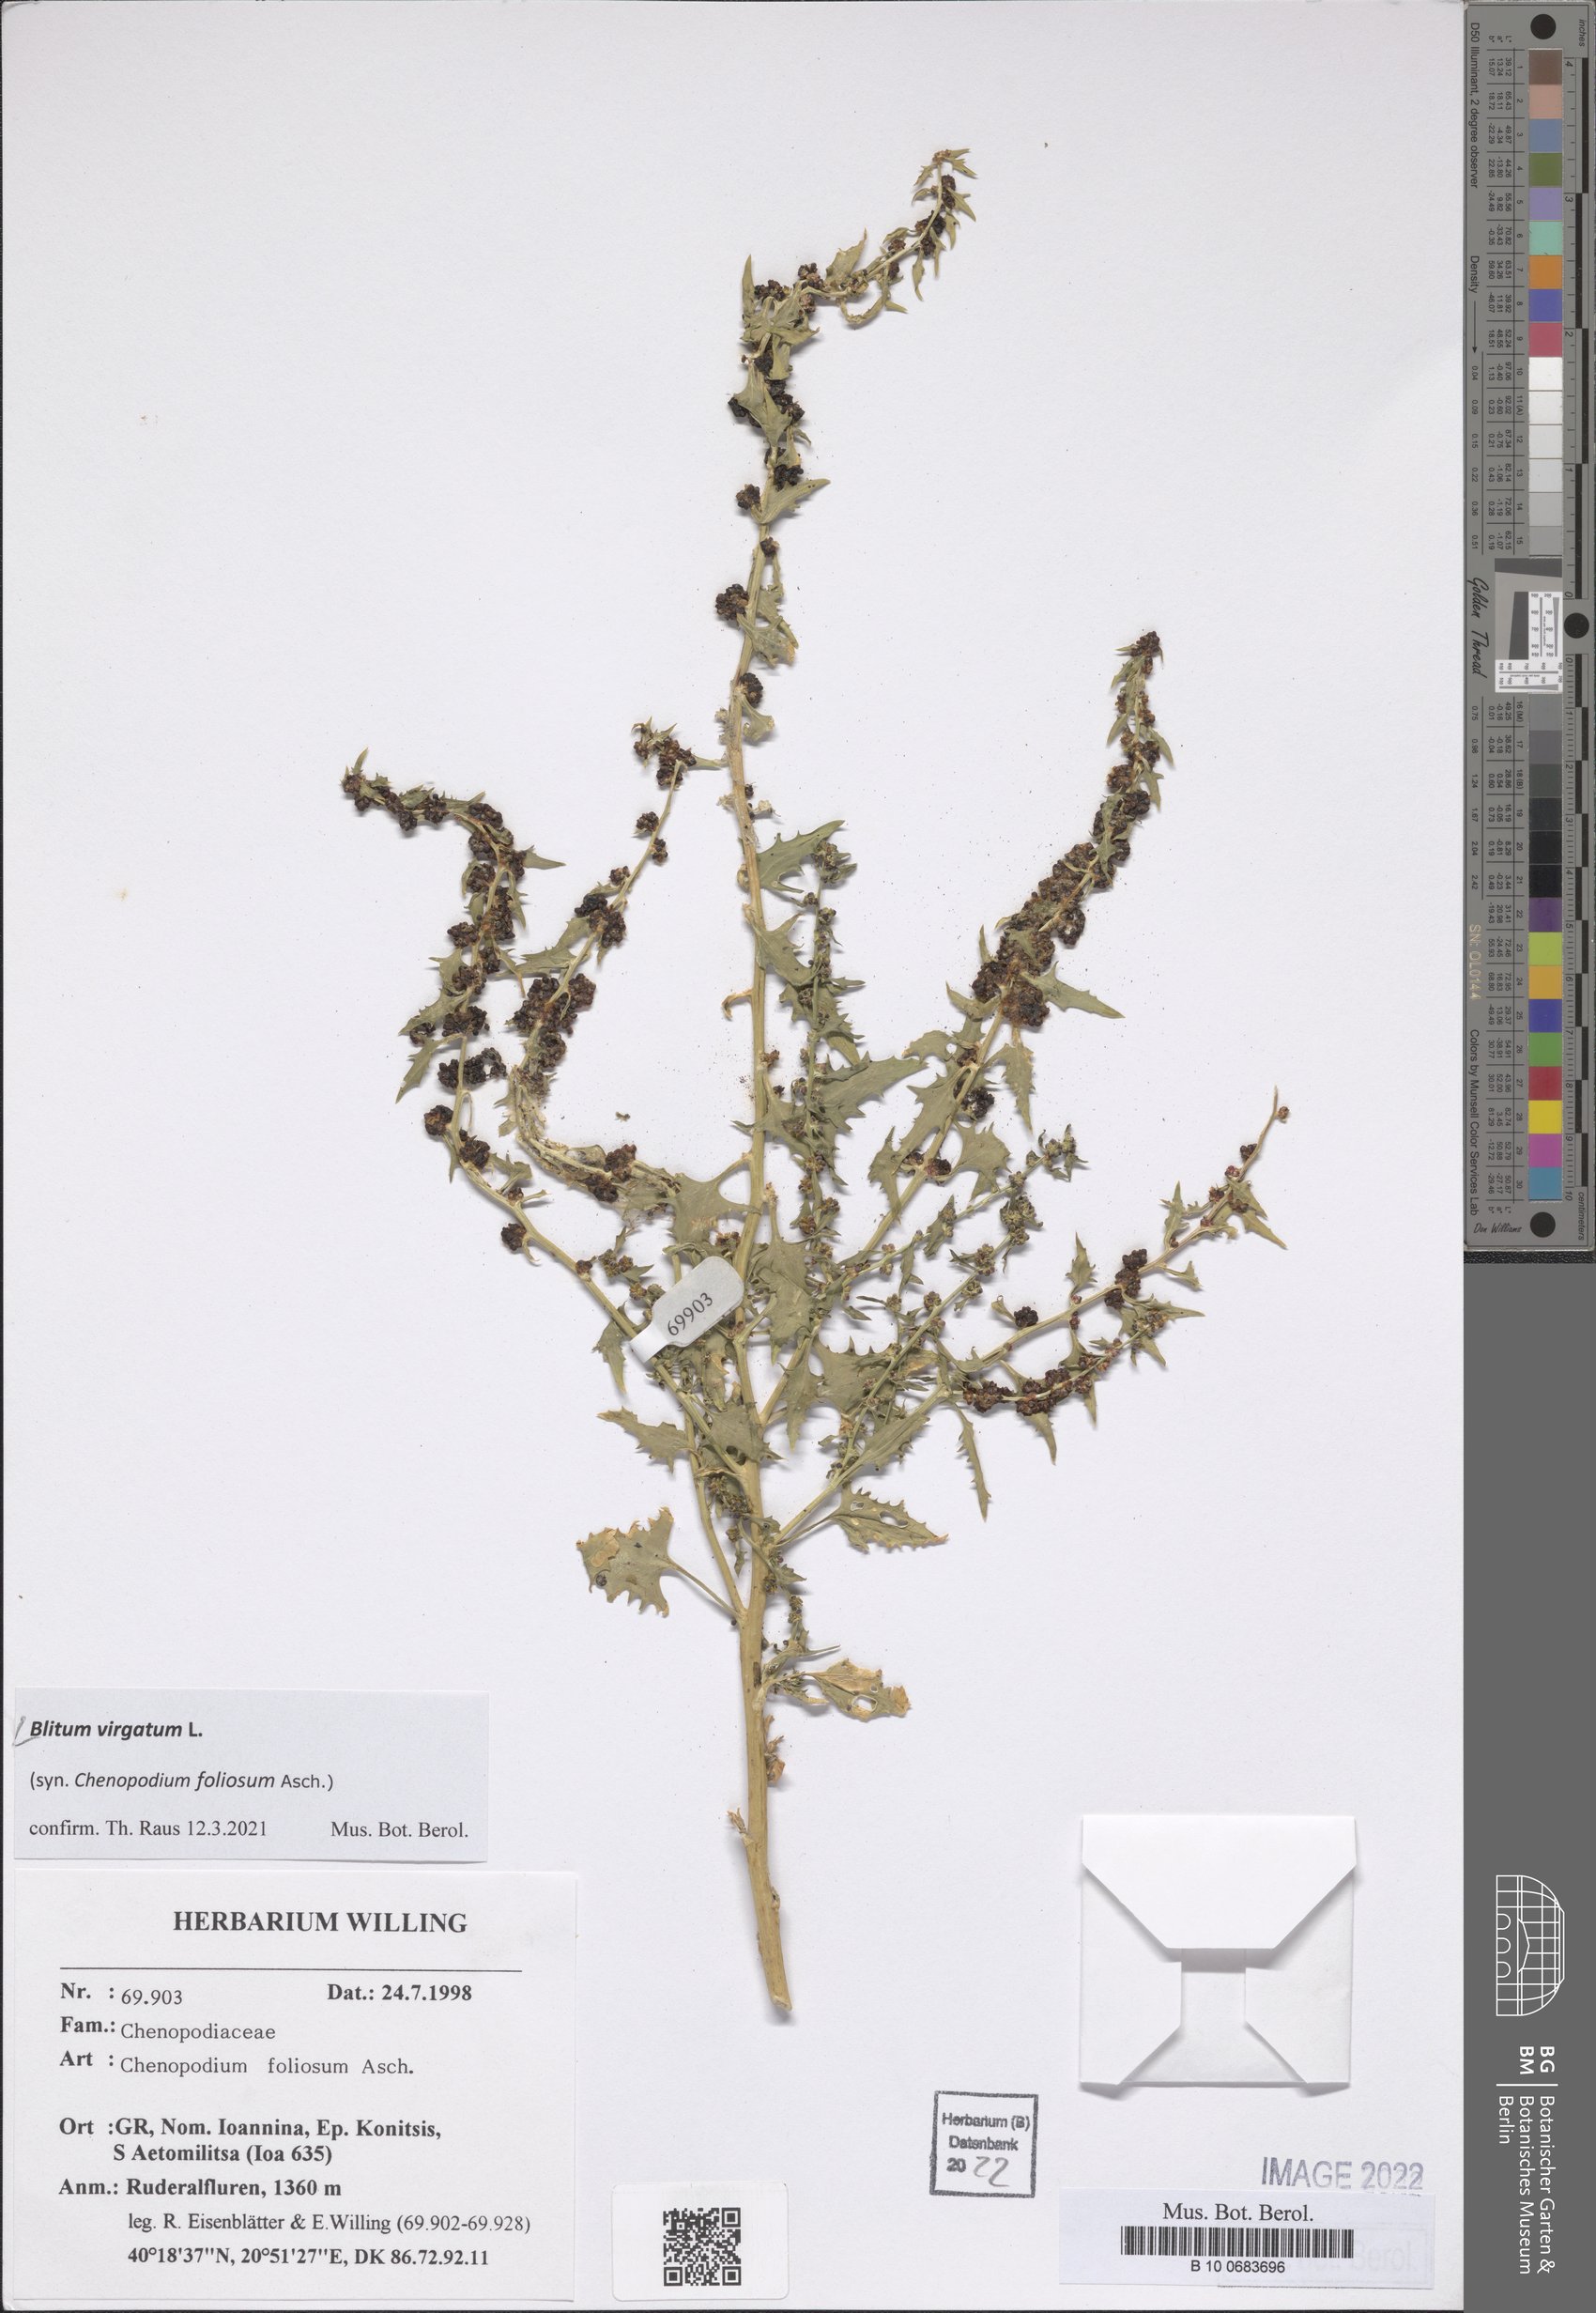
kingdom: Plantae
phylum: Tracheophyta
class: Magnoliopsida
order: Caryophyllales
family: Amaranthaceae
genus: Blitum
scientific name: Blitum virgatum
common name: Strawberry goosefoot
